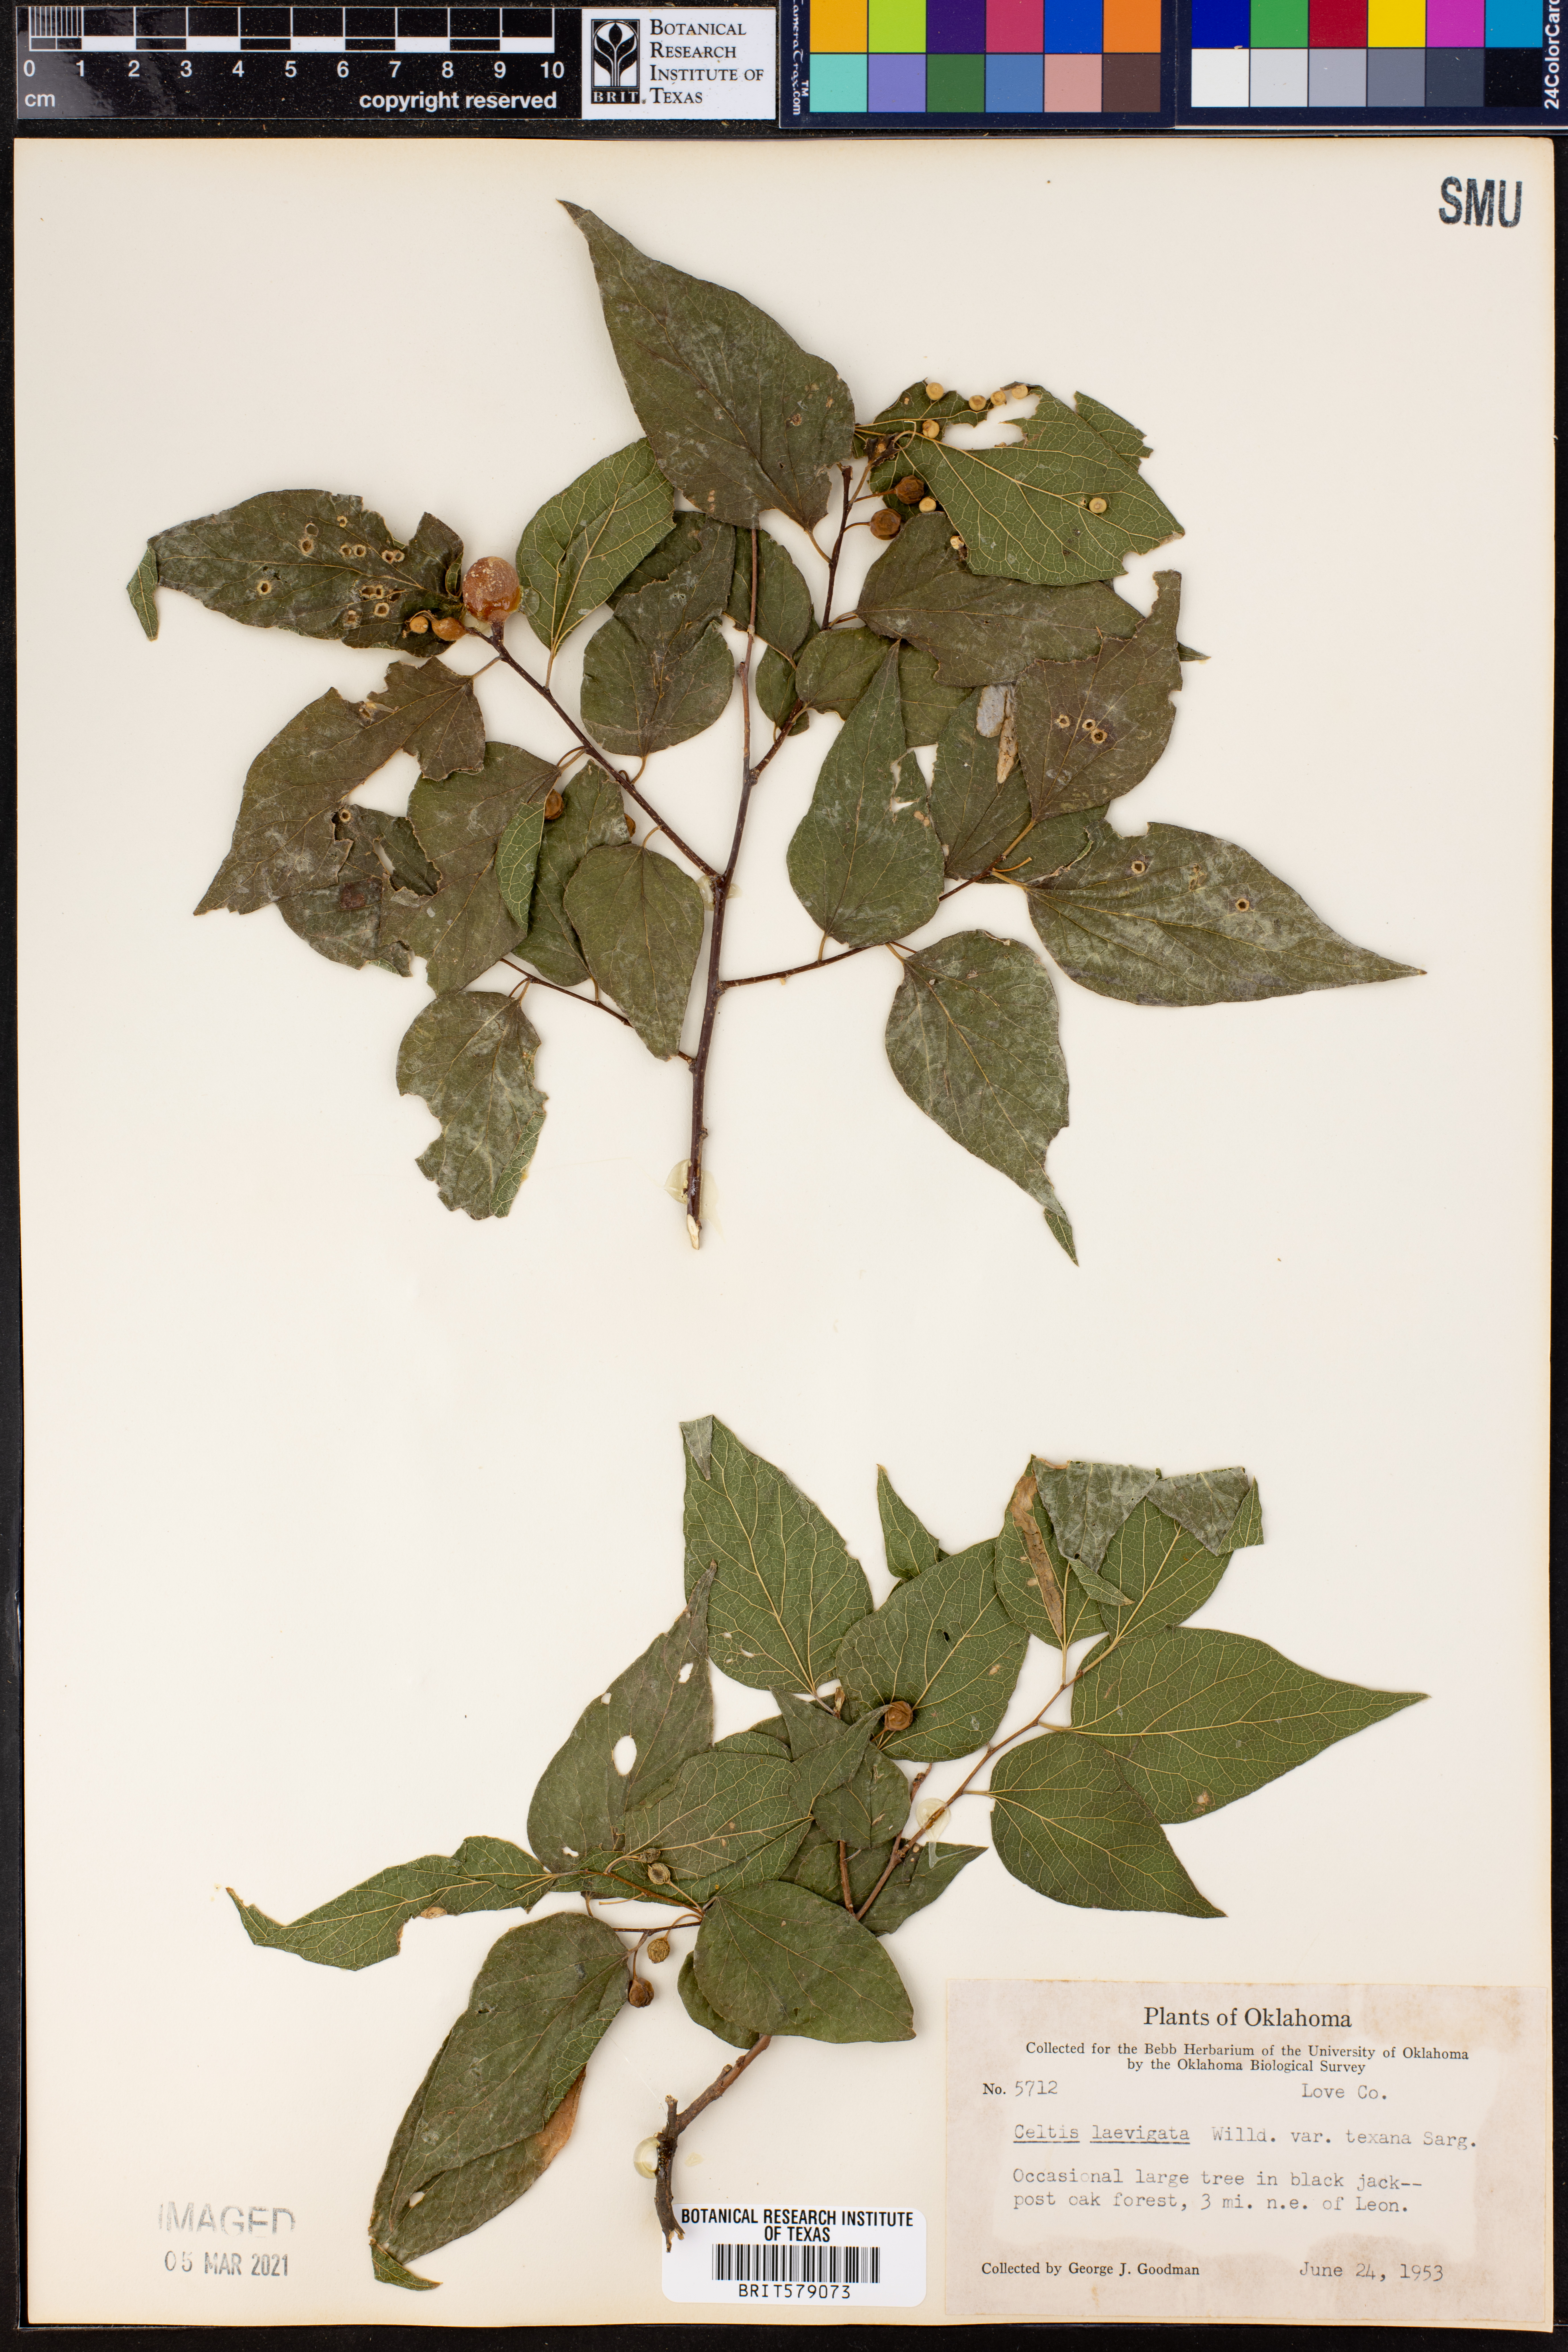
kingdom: Plantae
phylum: Tracheophyta
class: Magnoliopsida
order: Rosales
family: Cannabaceae
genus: Celtis
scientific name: Celtis laevigata
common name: Sugarberry
